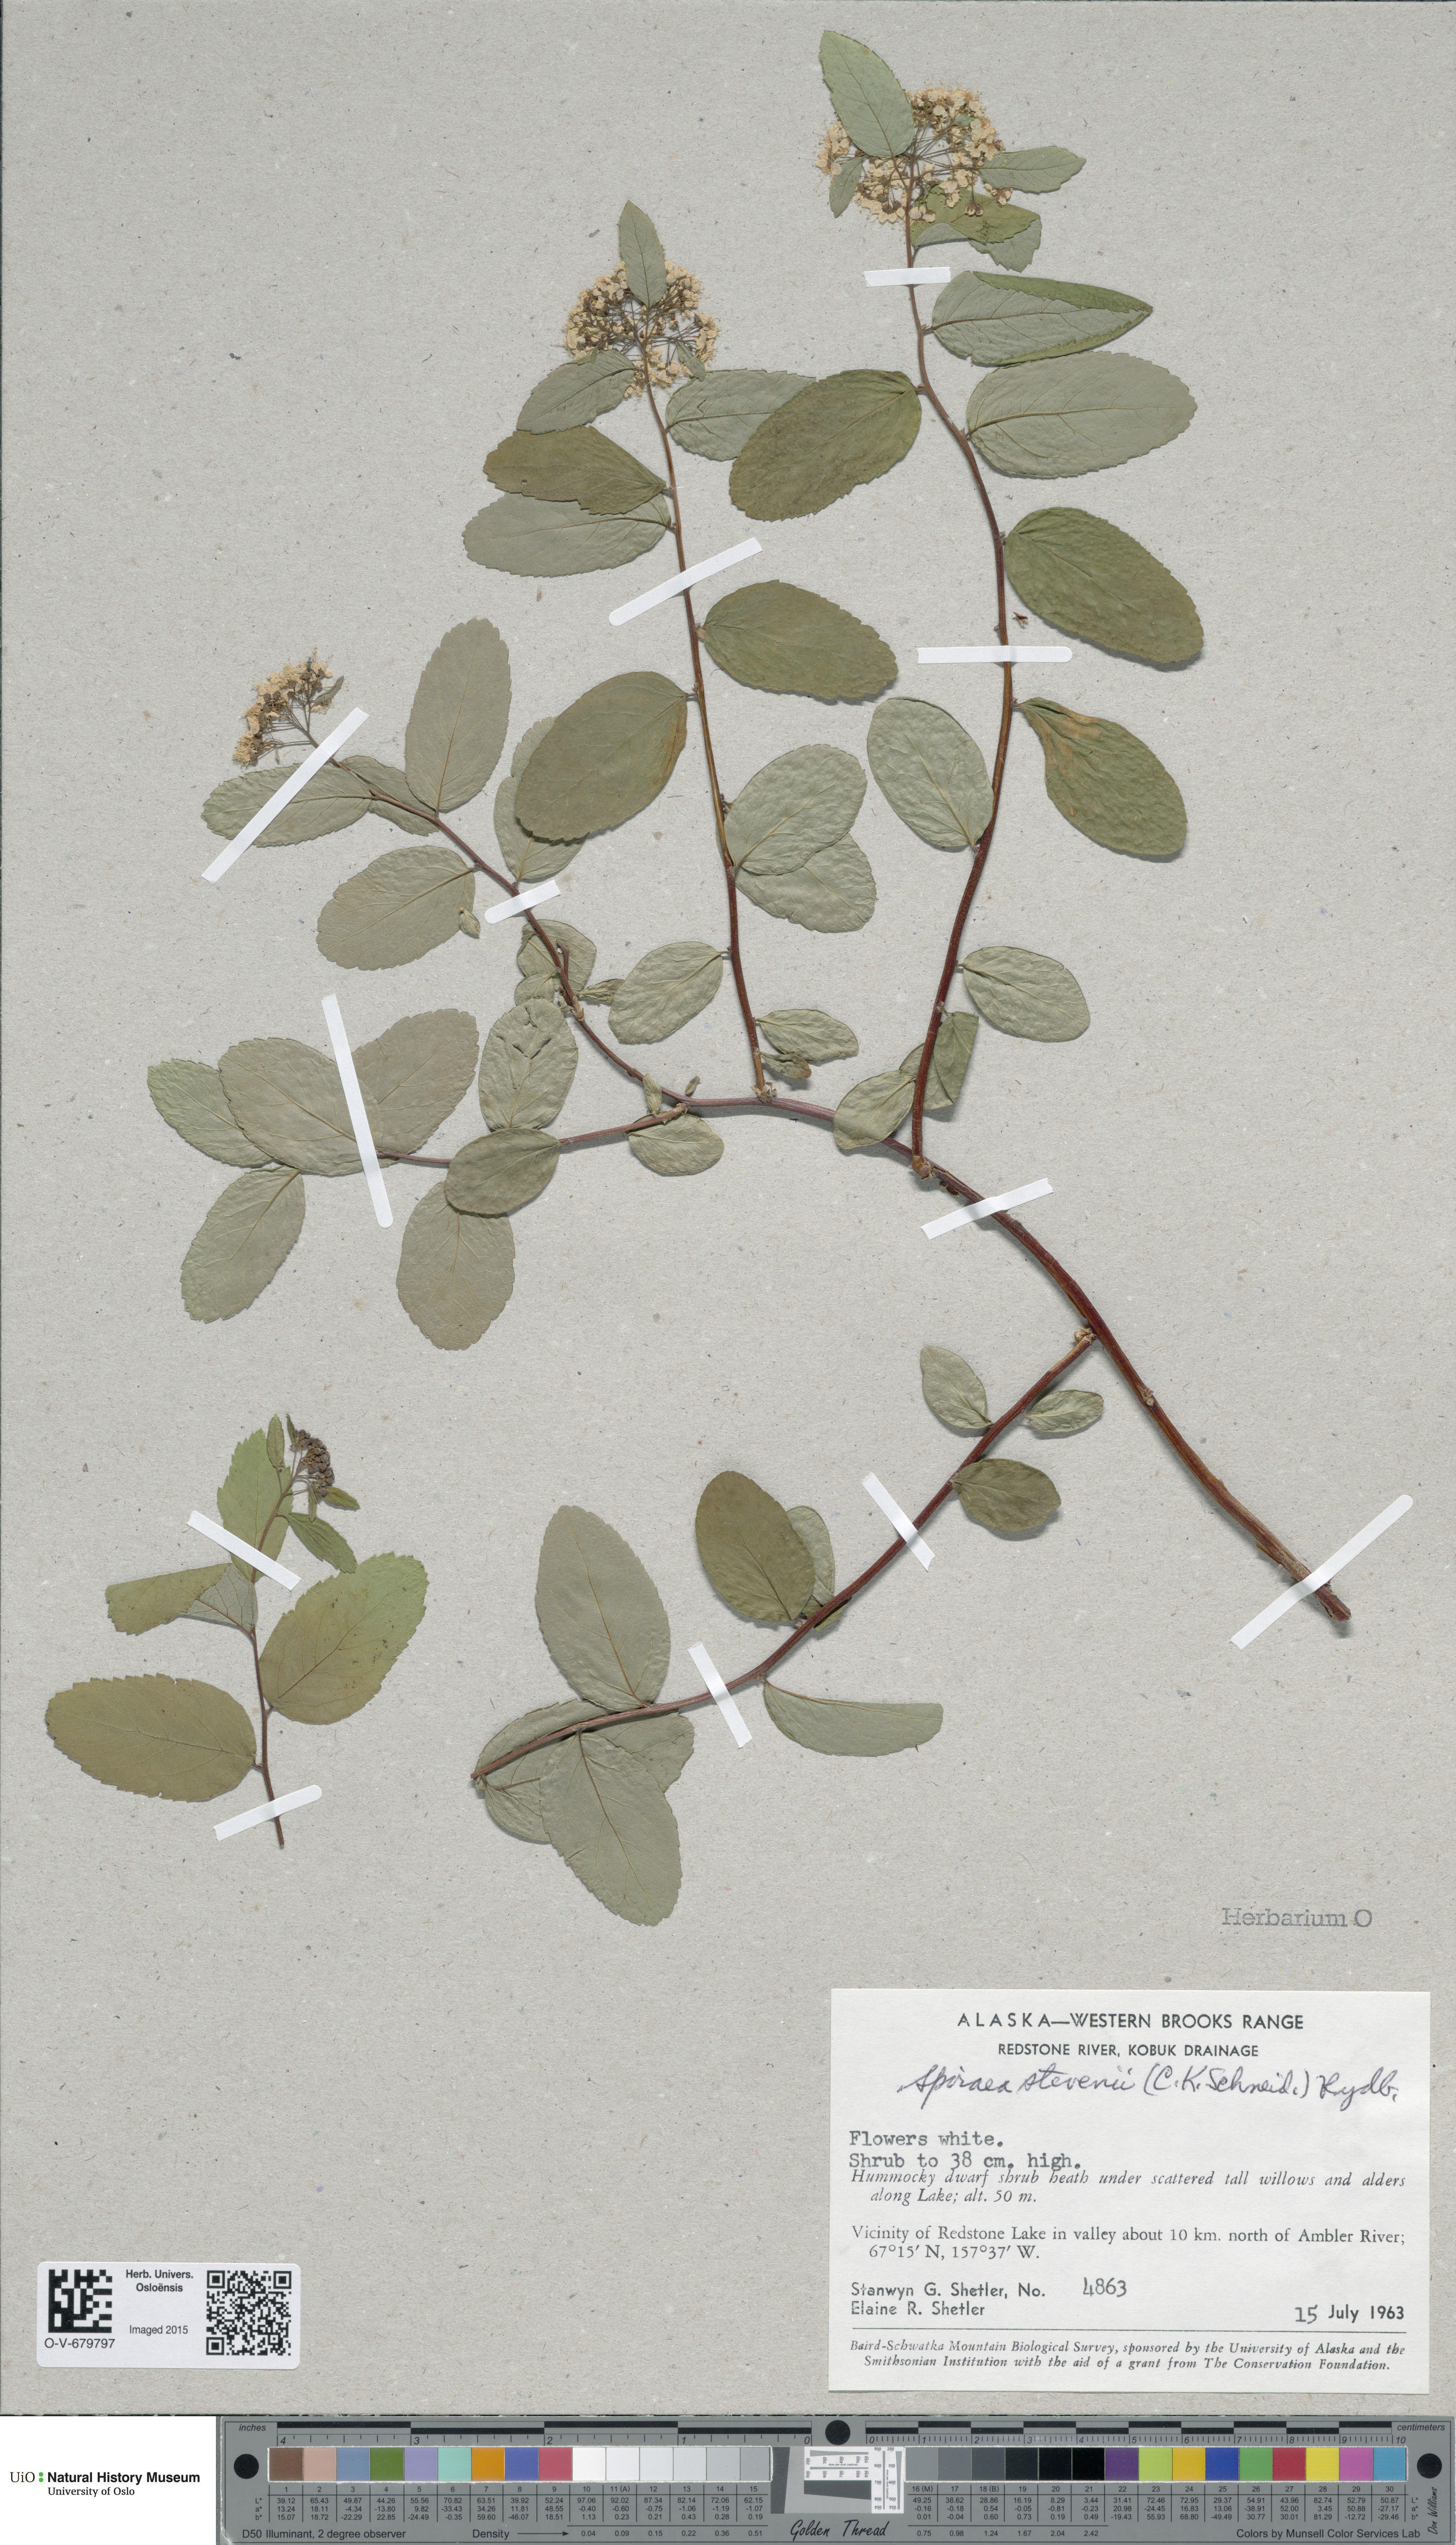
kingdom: Plantae
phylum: Tracheophyta
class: Magnoliopsida
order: Rosales
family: Rosaceae
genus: Spiraea
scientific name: Spiraea betulifolia
